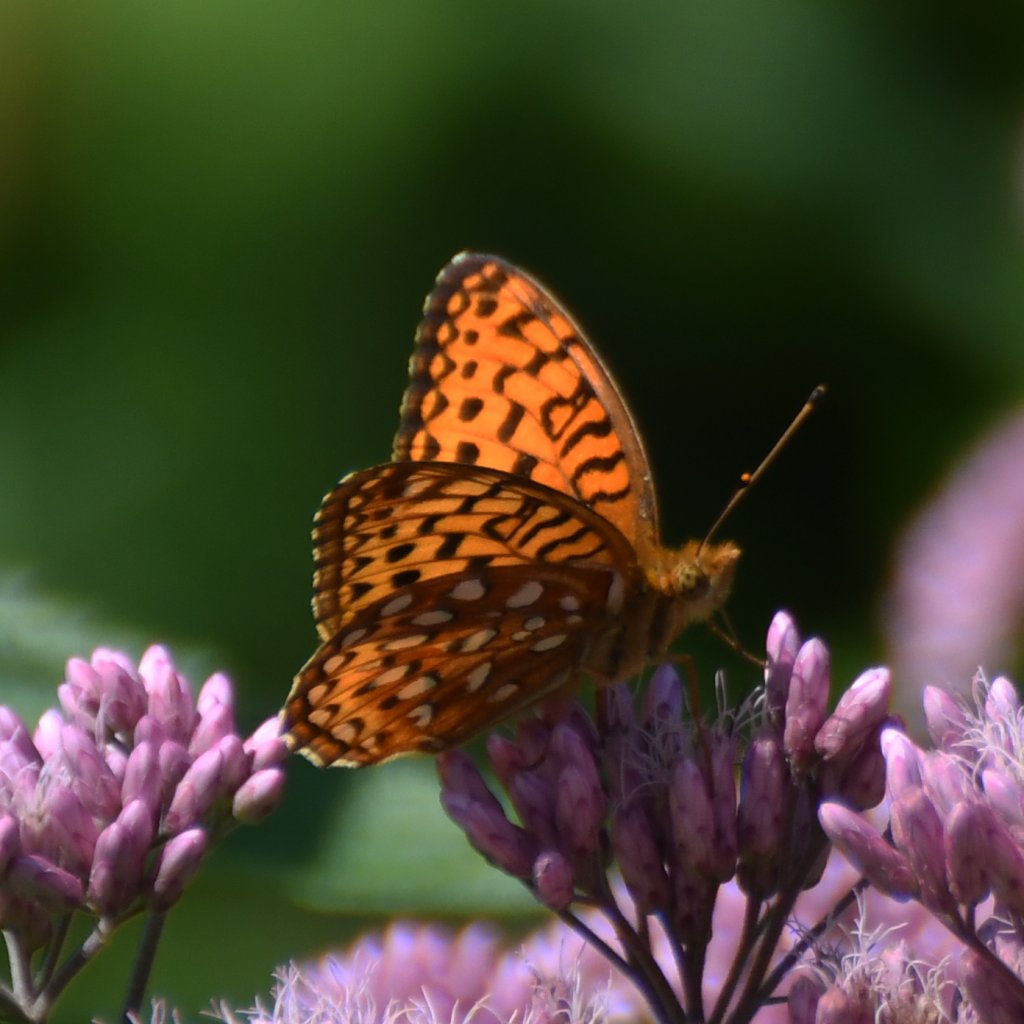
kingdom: Animalia
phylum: Arthropoda
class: Insecta
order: Lepidoptera
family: Nymphalidae
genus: Speyeria
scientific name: Speyeria aphrodite
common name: Aphrodite Fritillary
